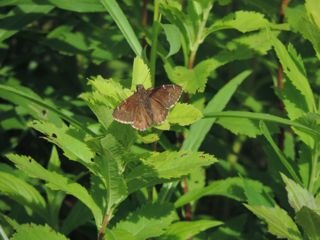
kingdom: Animalia
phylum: Arthropoda
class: Insecta
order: Lepidoptera
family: Hesperiidae
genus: Autochton
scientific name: Autochton
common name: Northern Cloudywing
